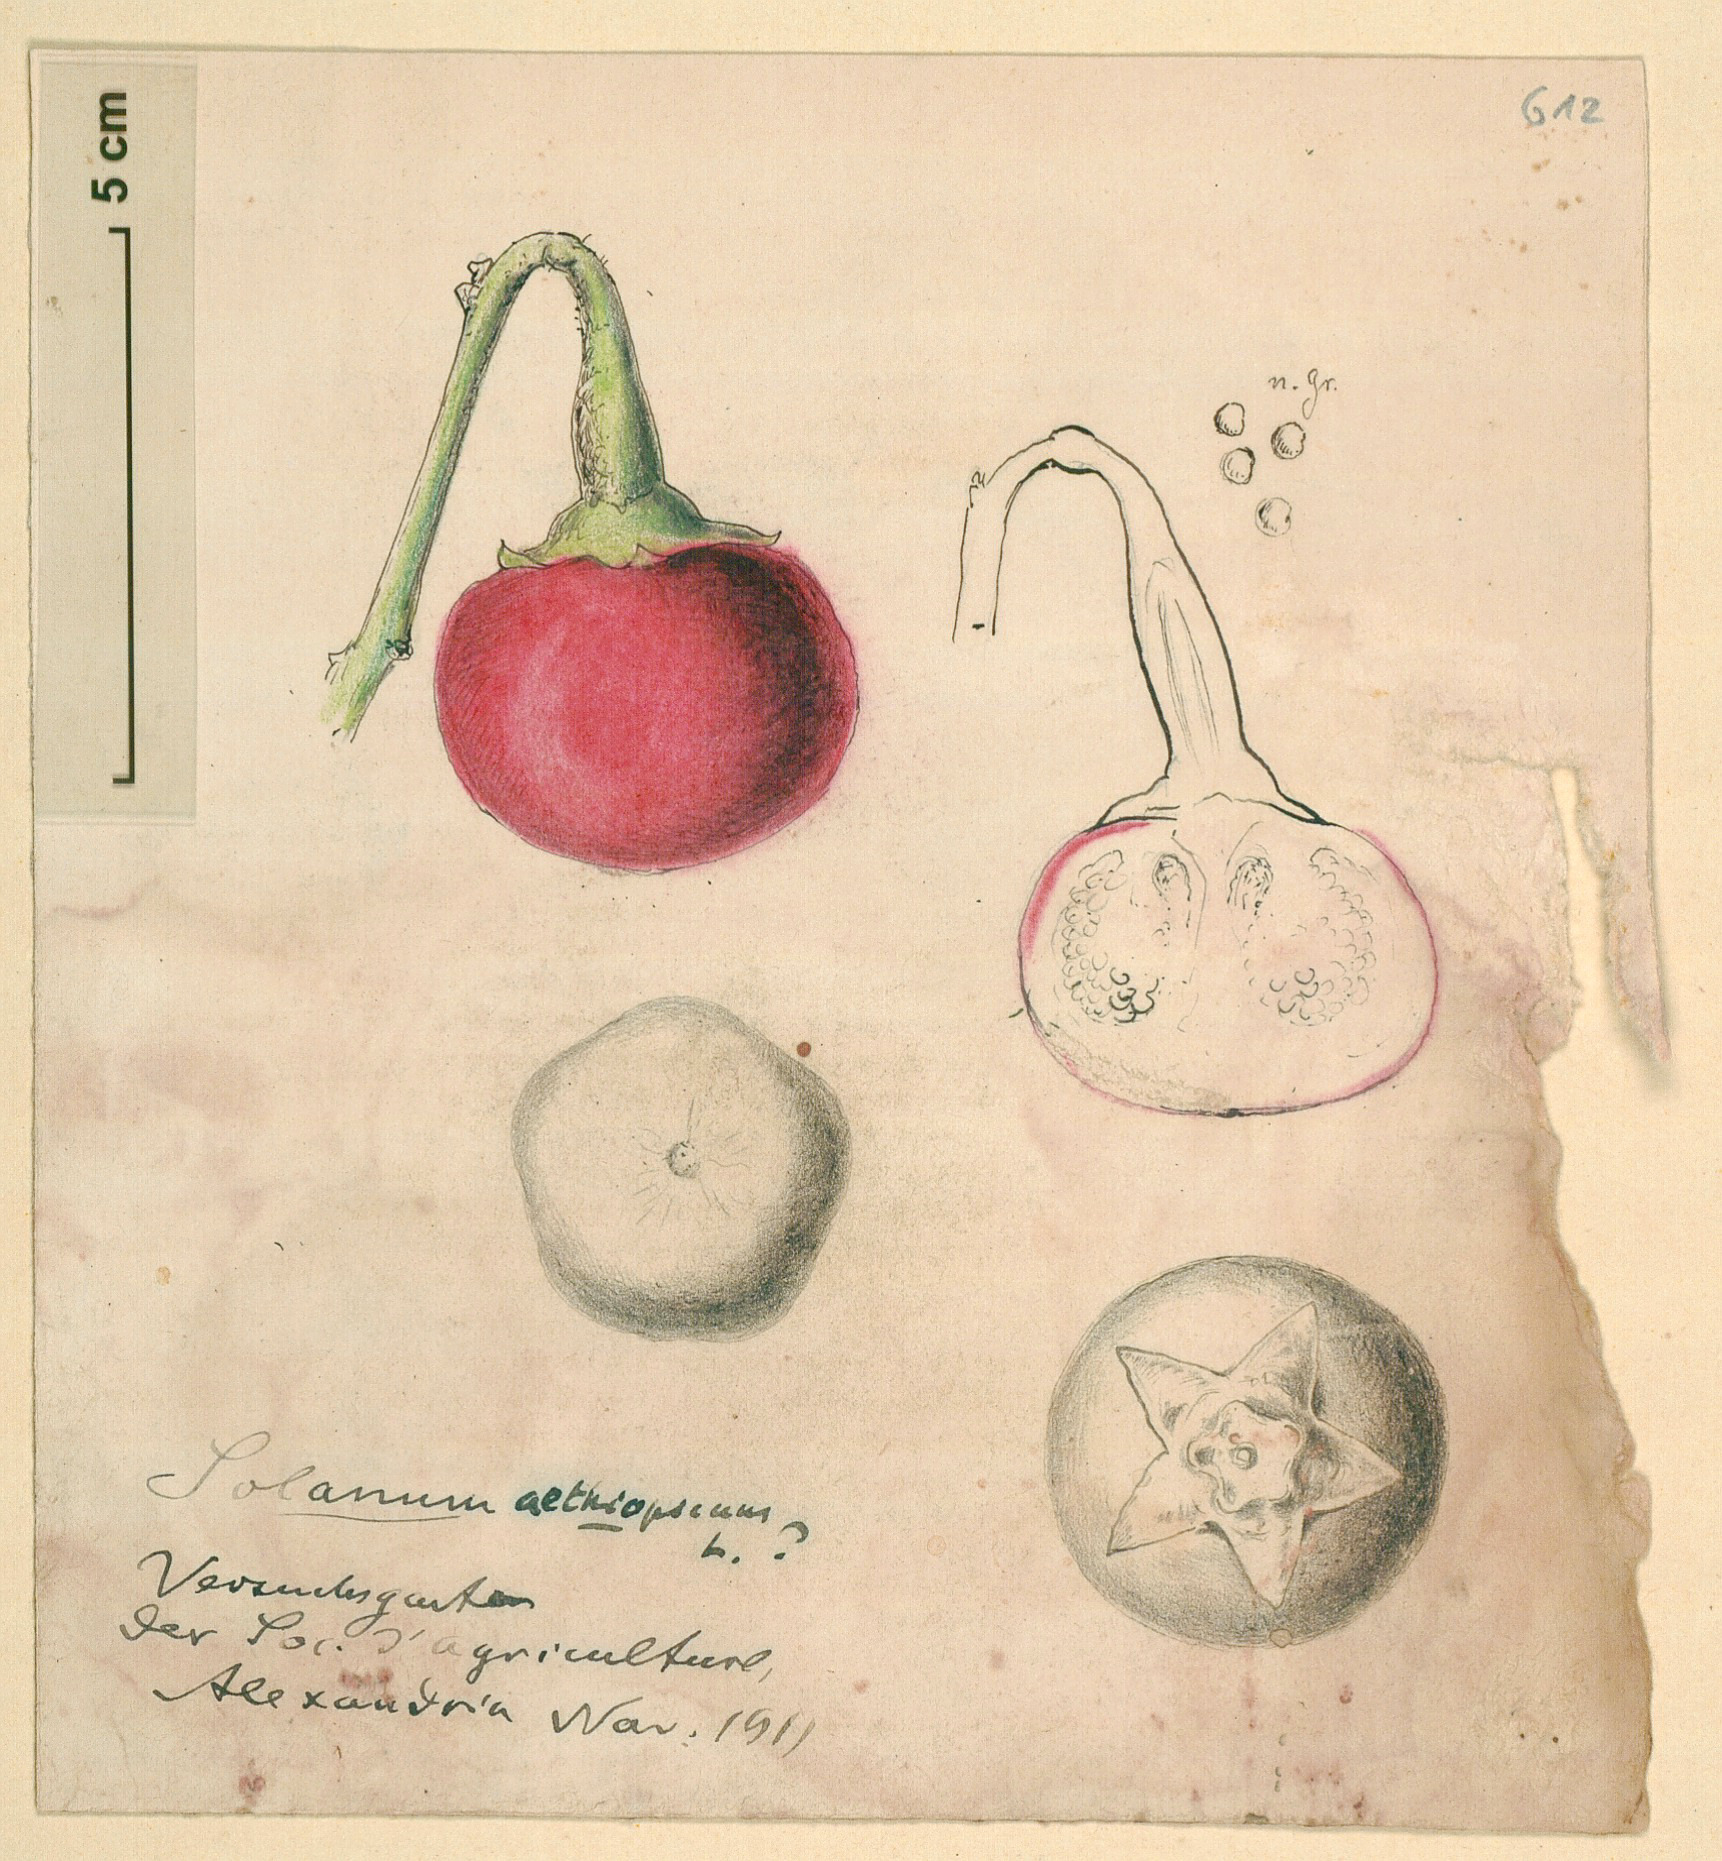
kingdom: Plantae
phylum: Tracheophyta
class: Magnoliopsida
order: Solanales
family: Solanaceae
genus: Solanum
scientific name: Solanum aethiopicum
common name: Gilo
